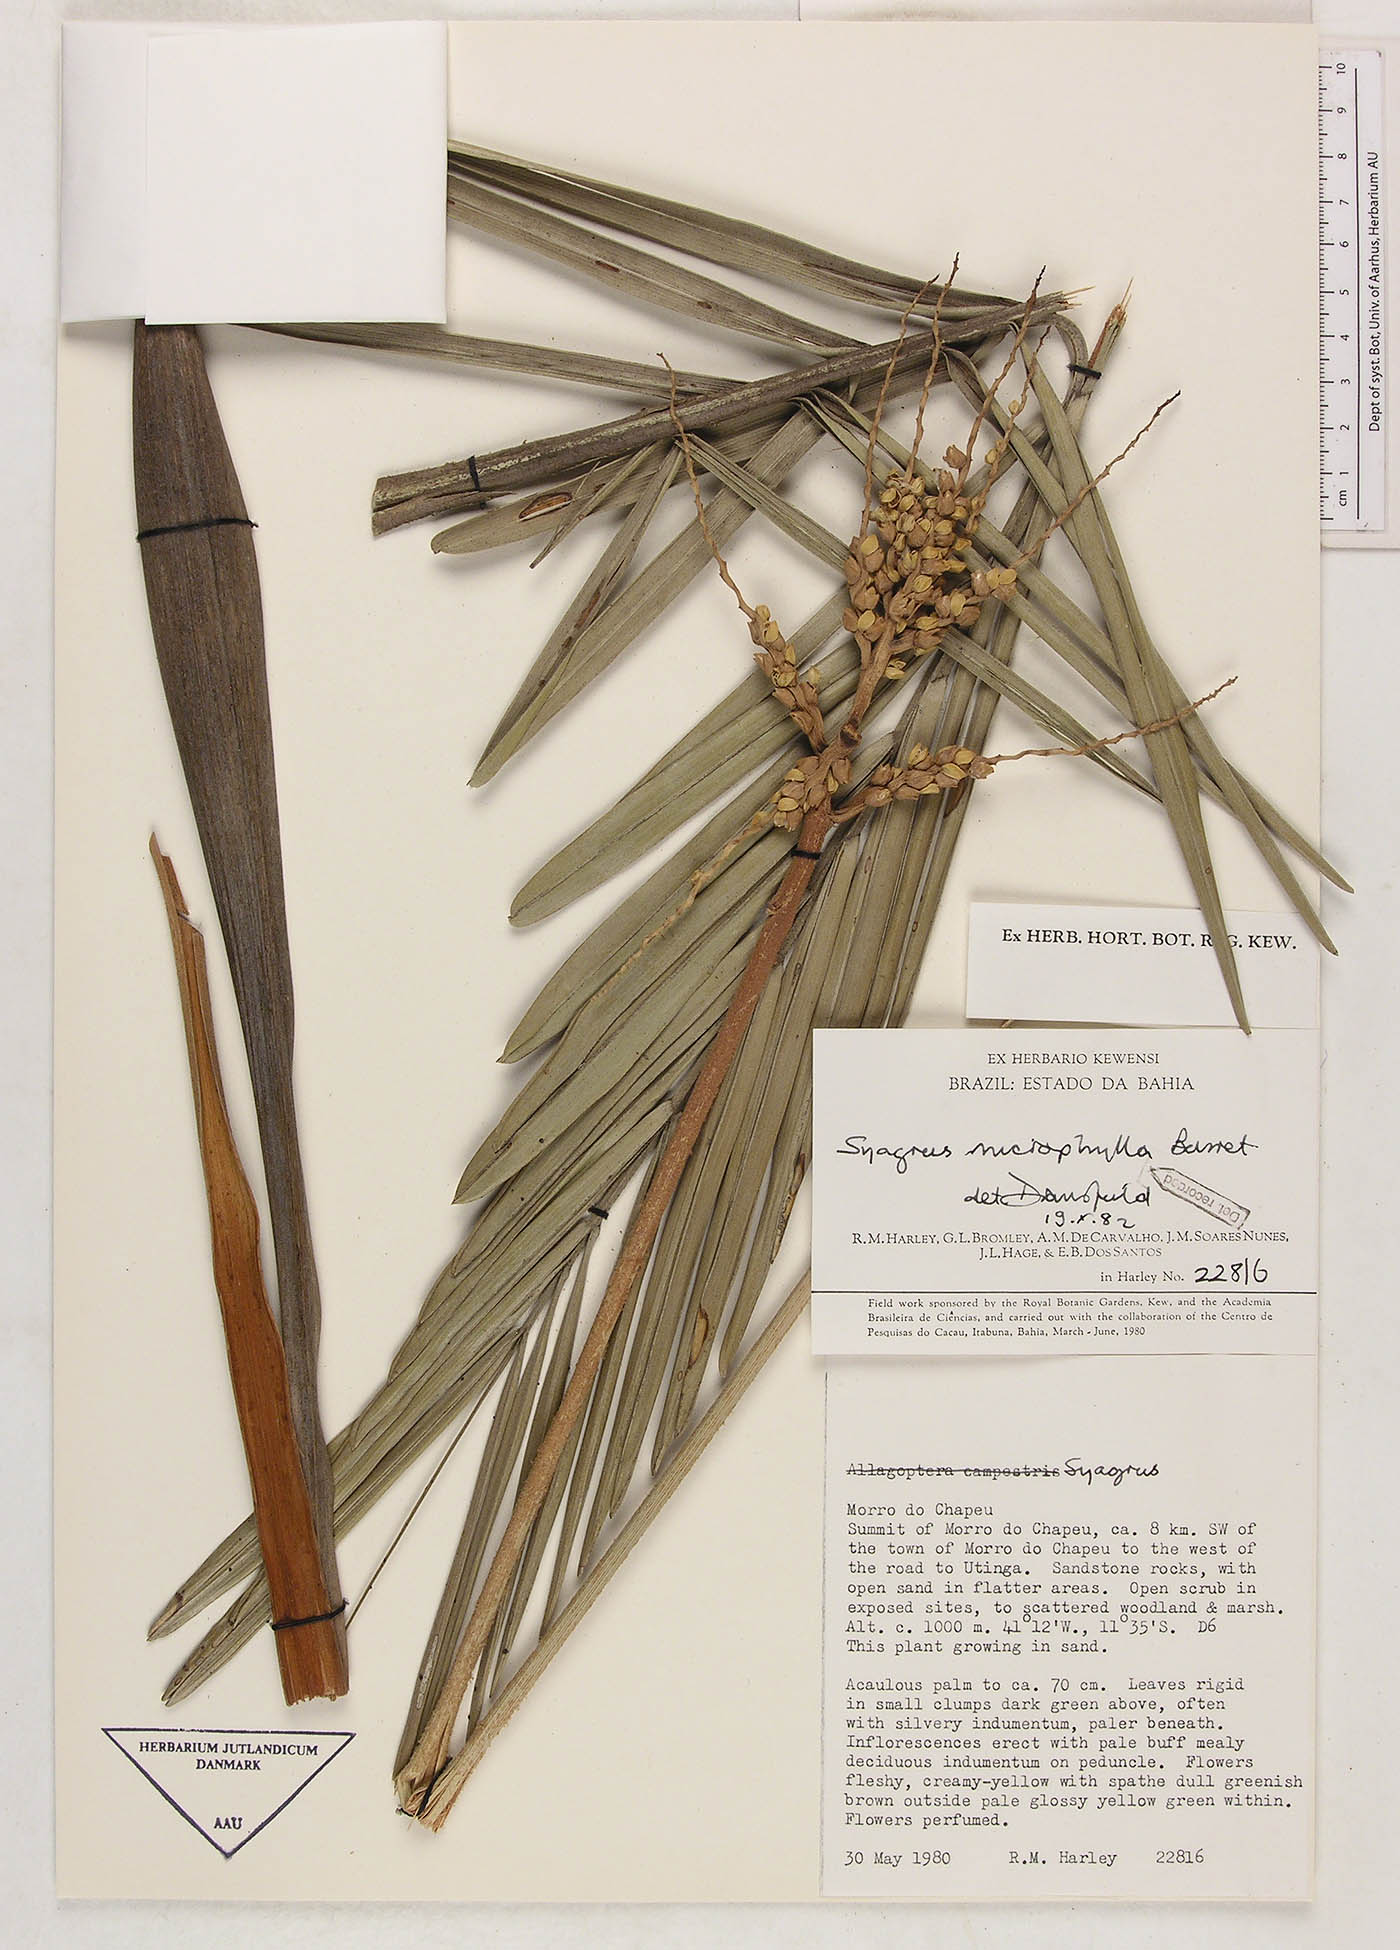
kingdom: Plantae
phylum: Tracheophyta
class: Liliopsida
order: Arecales
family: Arecaceae
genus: Syagrus
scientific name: Syagrus microphylla
